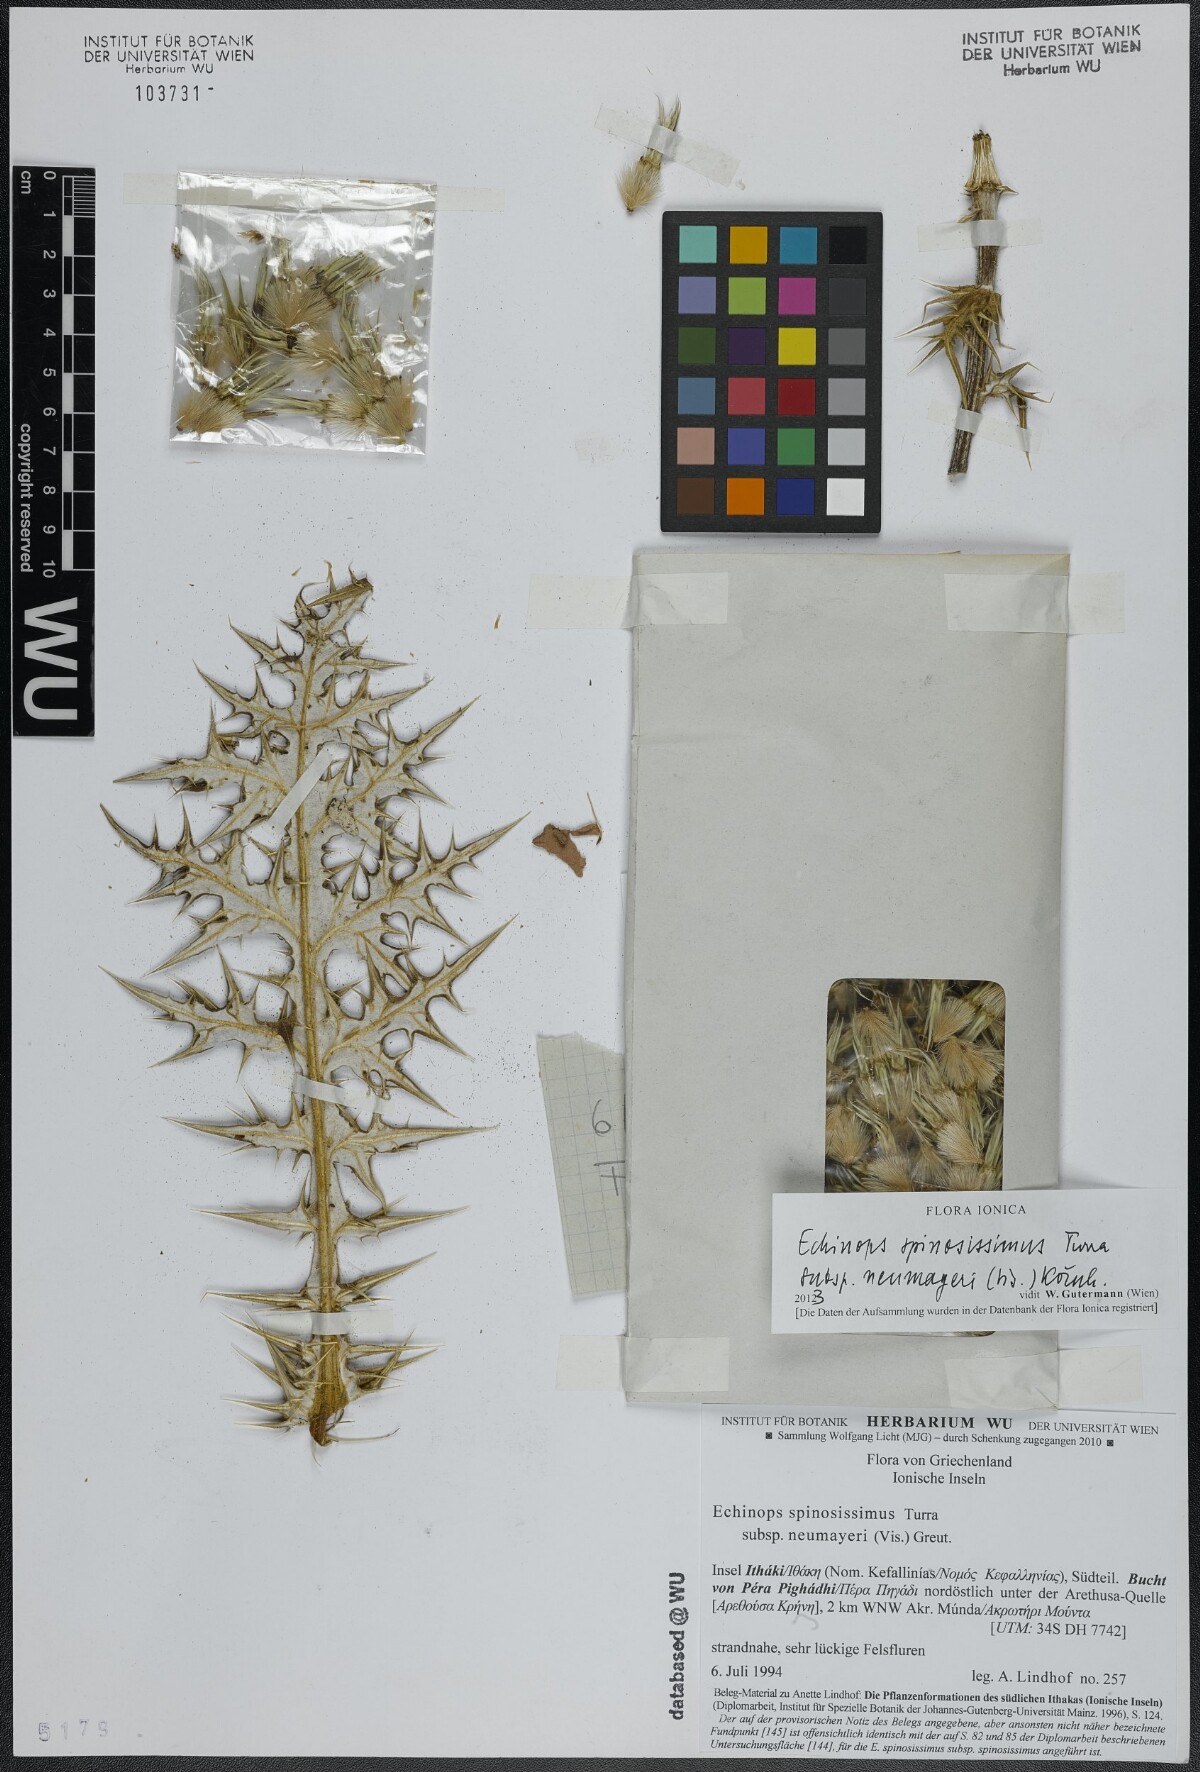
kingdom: Plantae
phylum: Tracheophyta
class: Magnoliopsida
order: Asterales
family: Asteraceae
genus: Echinops
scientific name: Echinops spinosissimus
